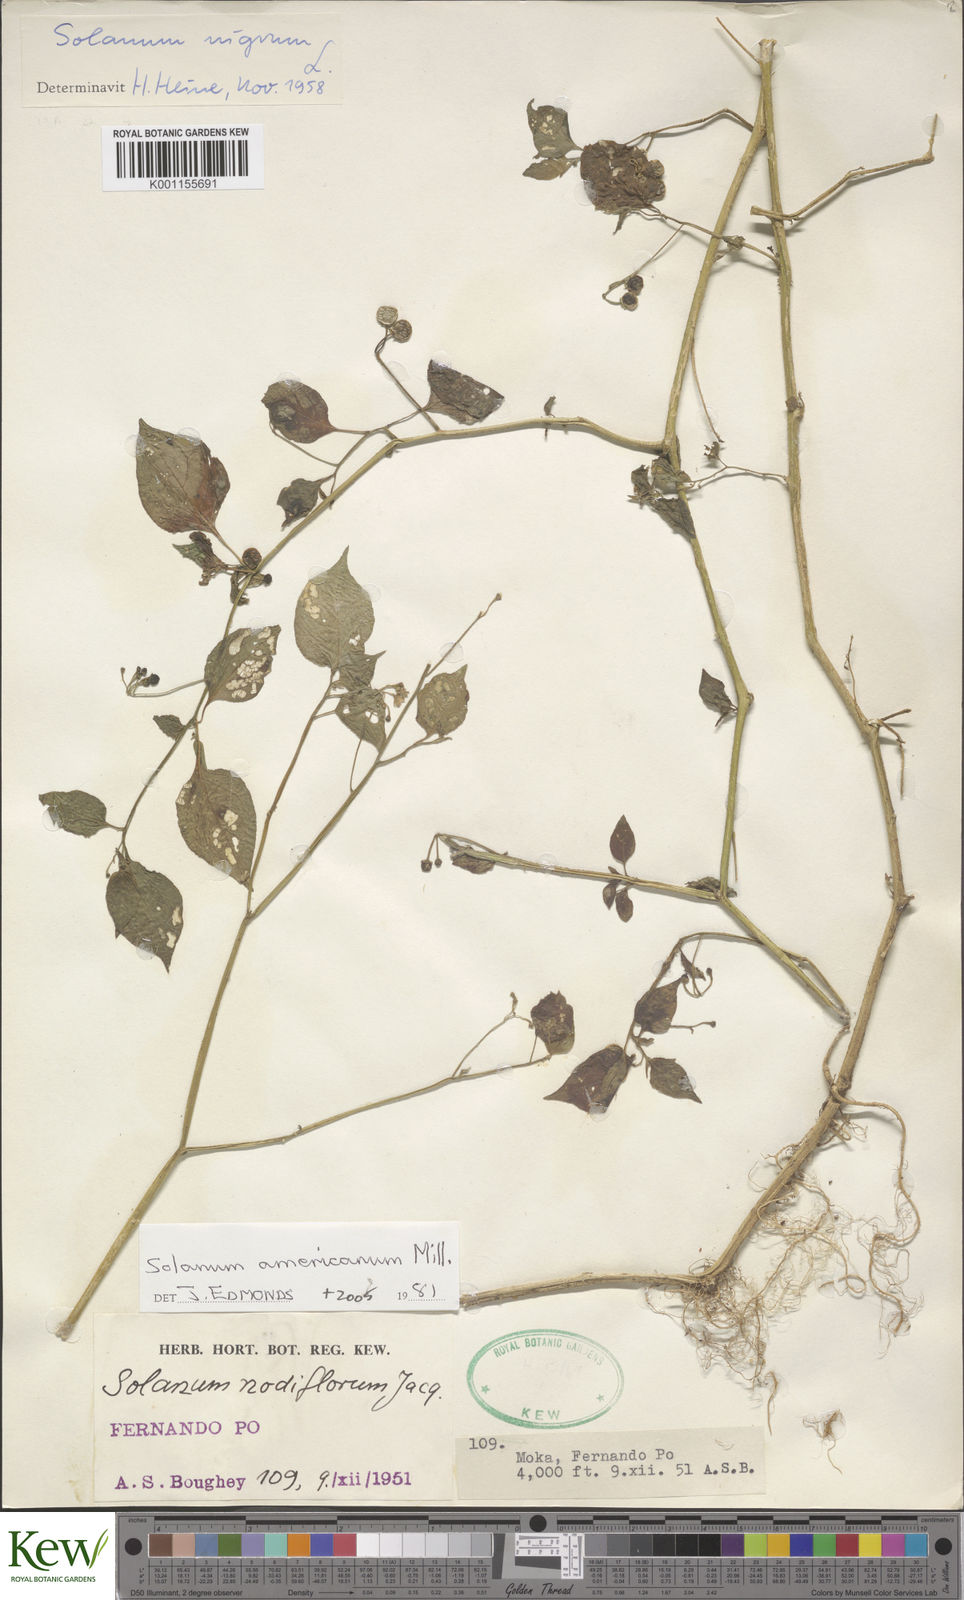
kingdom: Plantae
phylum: Tracheophyta
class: Magnoliopsida
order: Solanales
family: Solanaceae
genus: Solanum
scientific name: Solanum scabrum
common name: Garden-huckleberry
